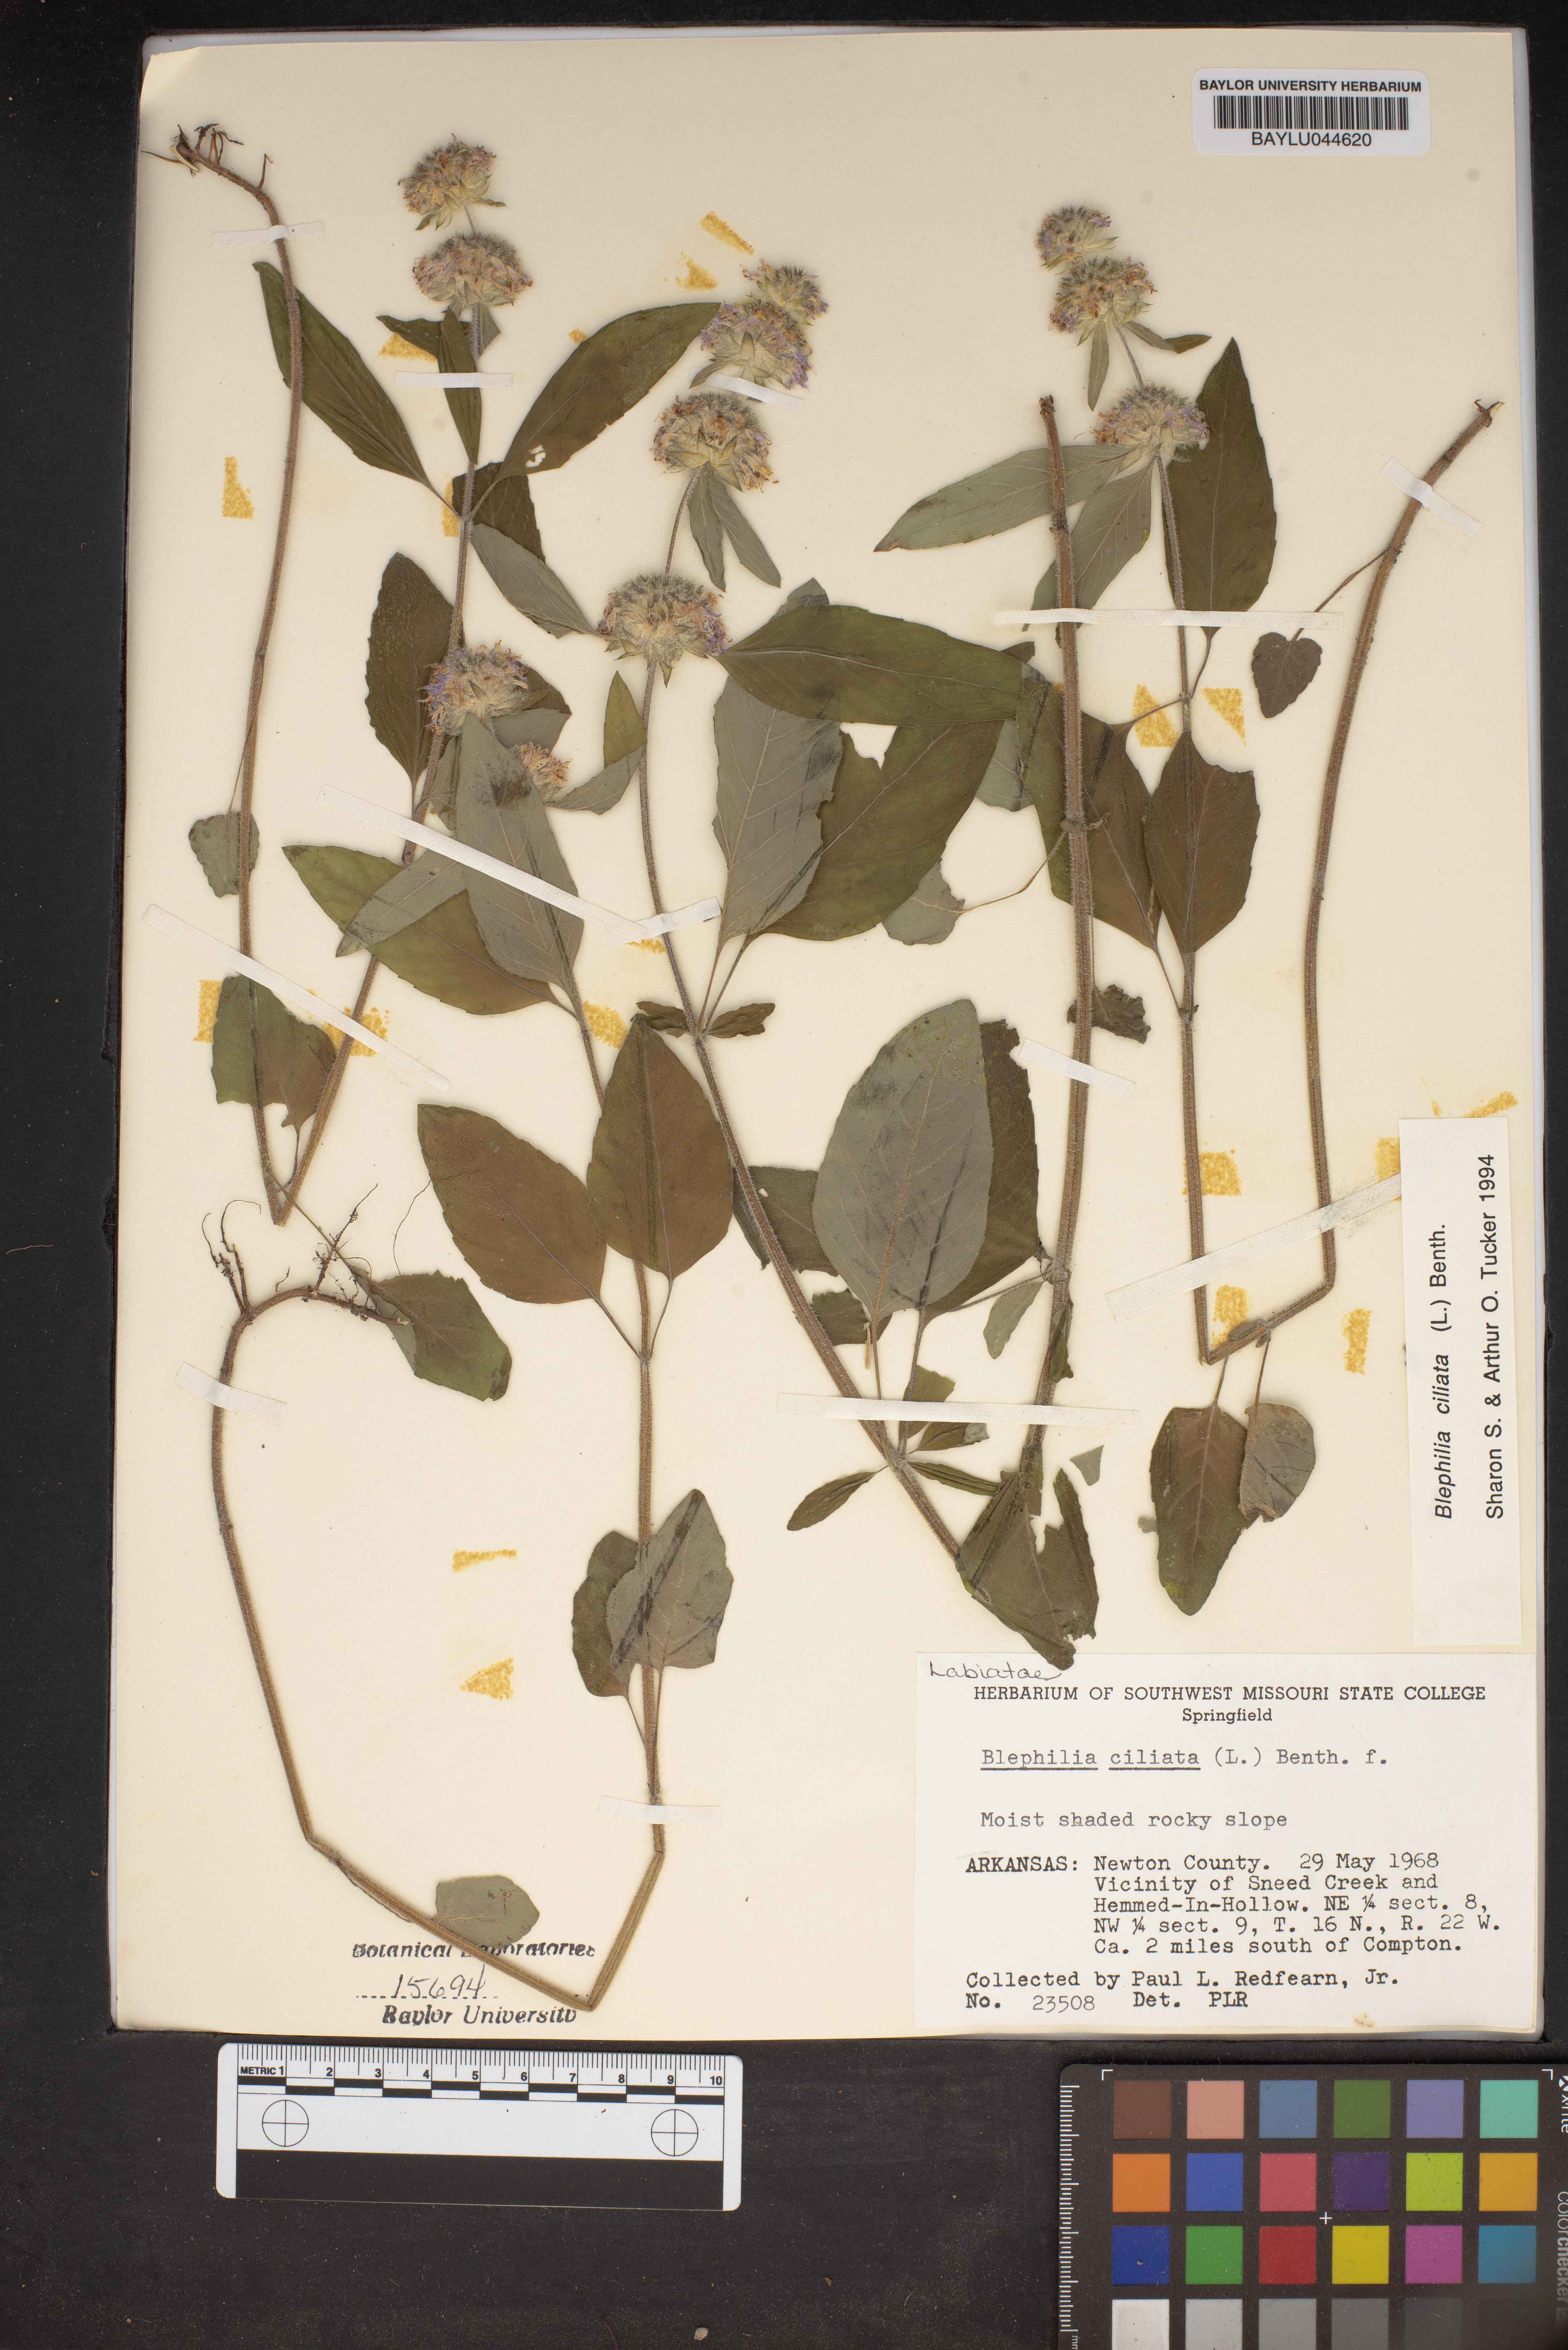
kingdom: Plantae
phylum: Tracheophyta
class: Magnoliopsida
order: Lamiales
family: Lamiaceae
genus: Blephilia
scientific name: Blephilia ciliata
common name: Downy blephilia
